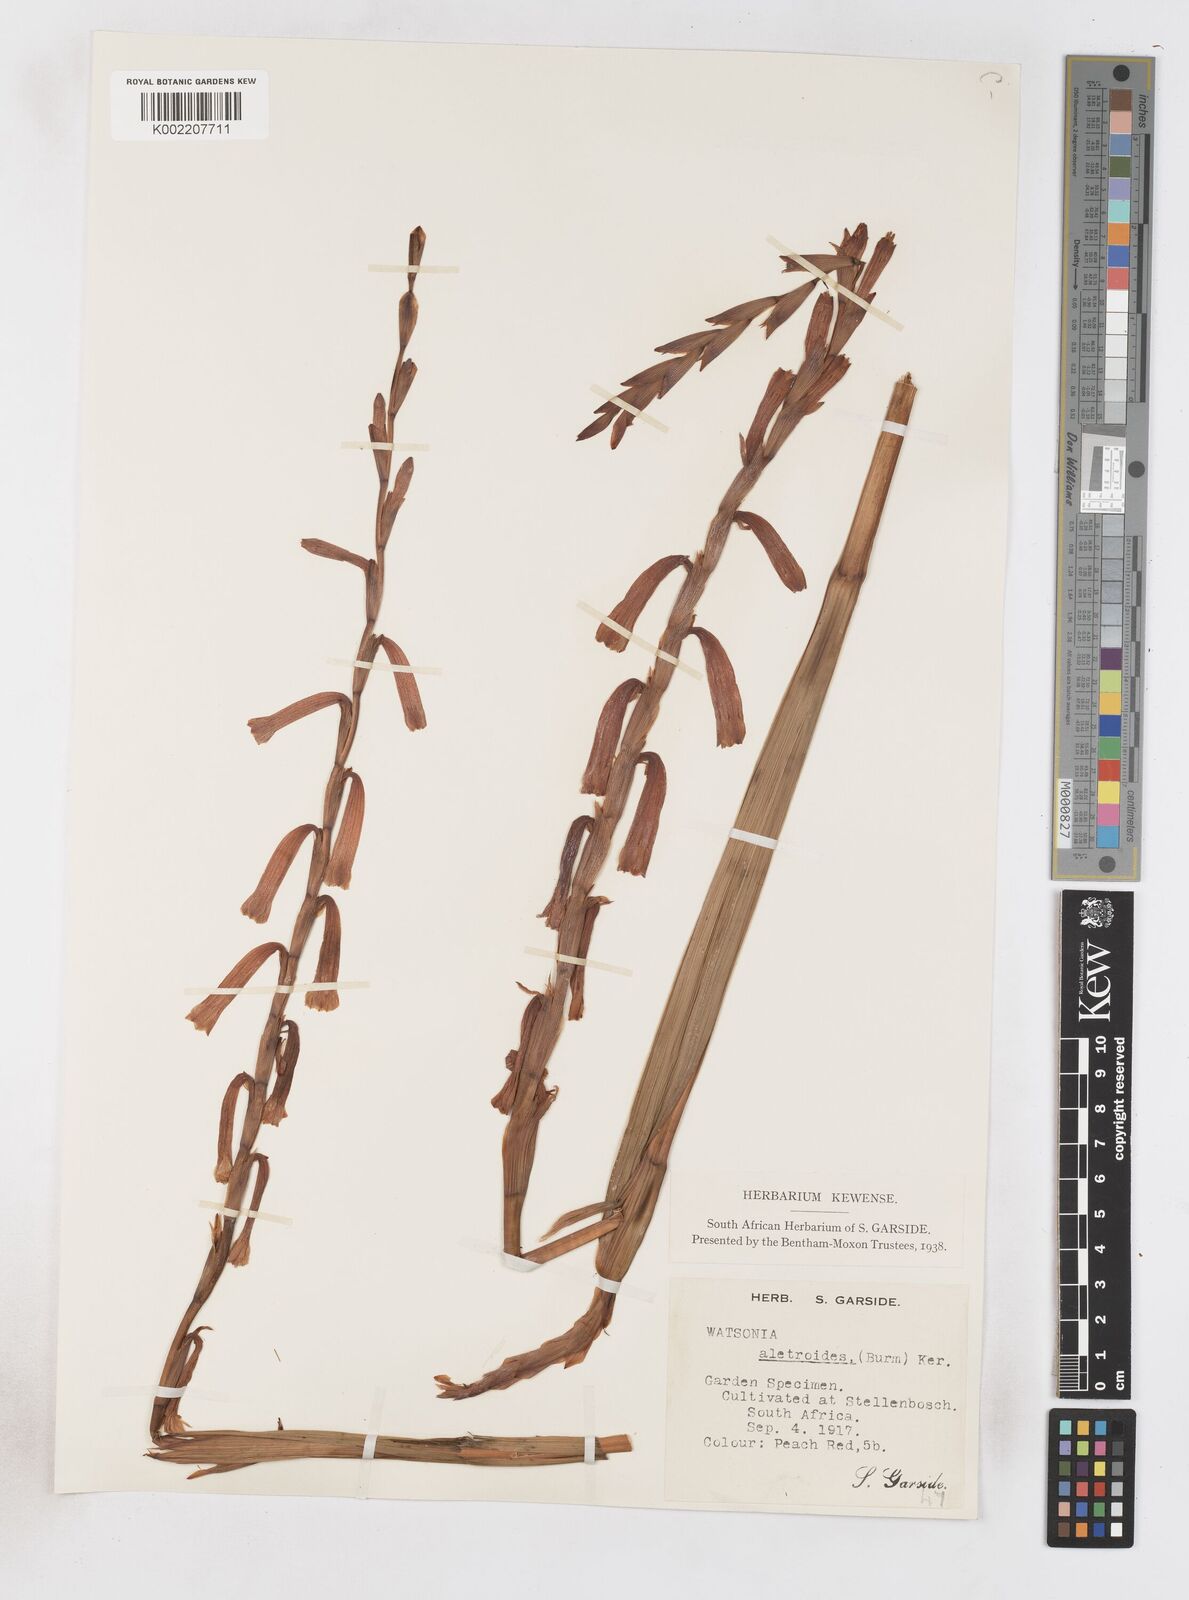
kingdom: Plantae
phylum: Tracheophyta
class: Liliopsida
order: Asparagales
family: Iridaceae
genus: Watsonia
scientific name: Watsonia aletroides
